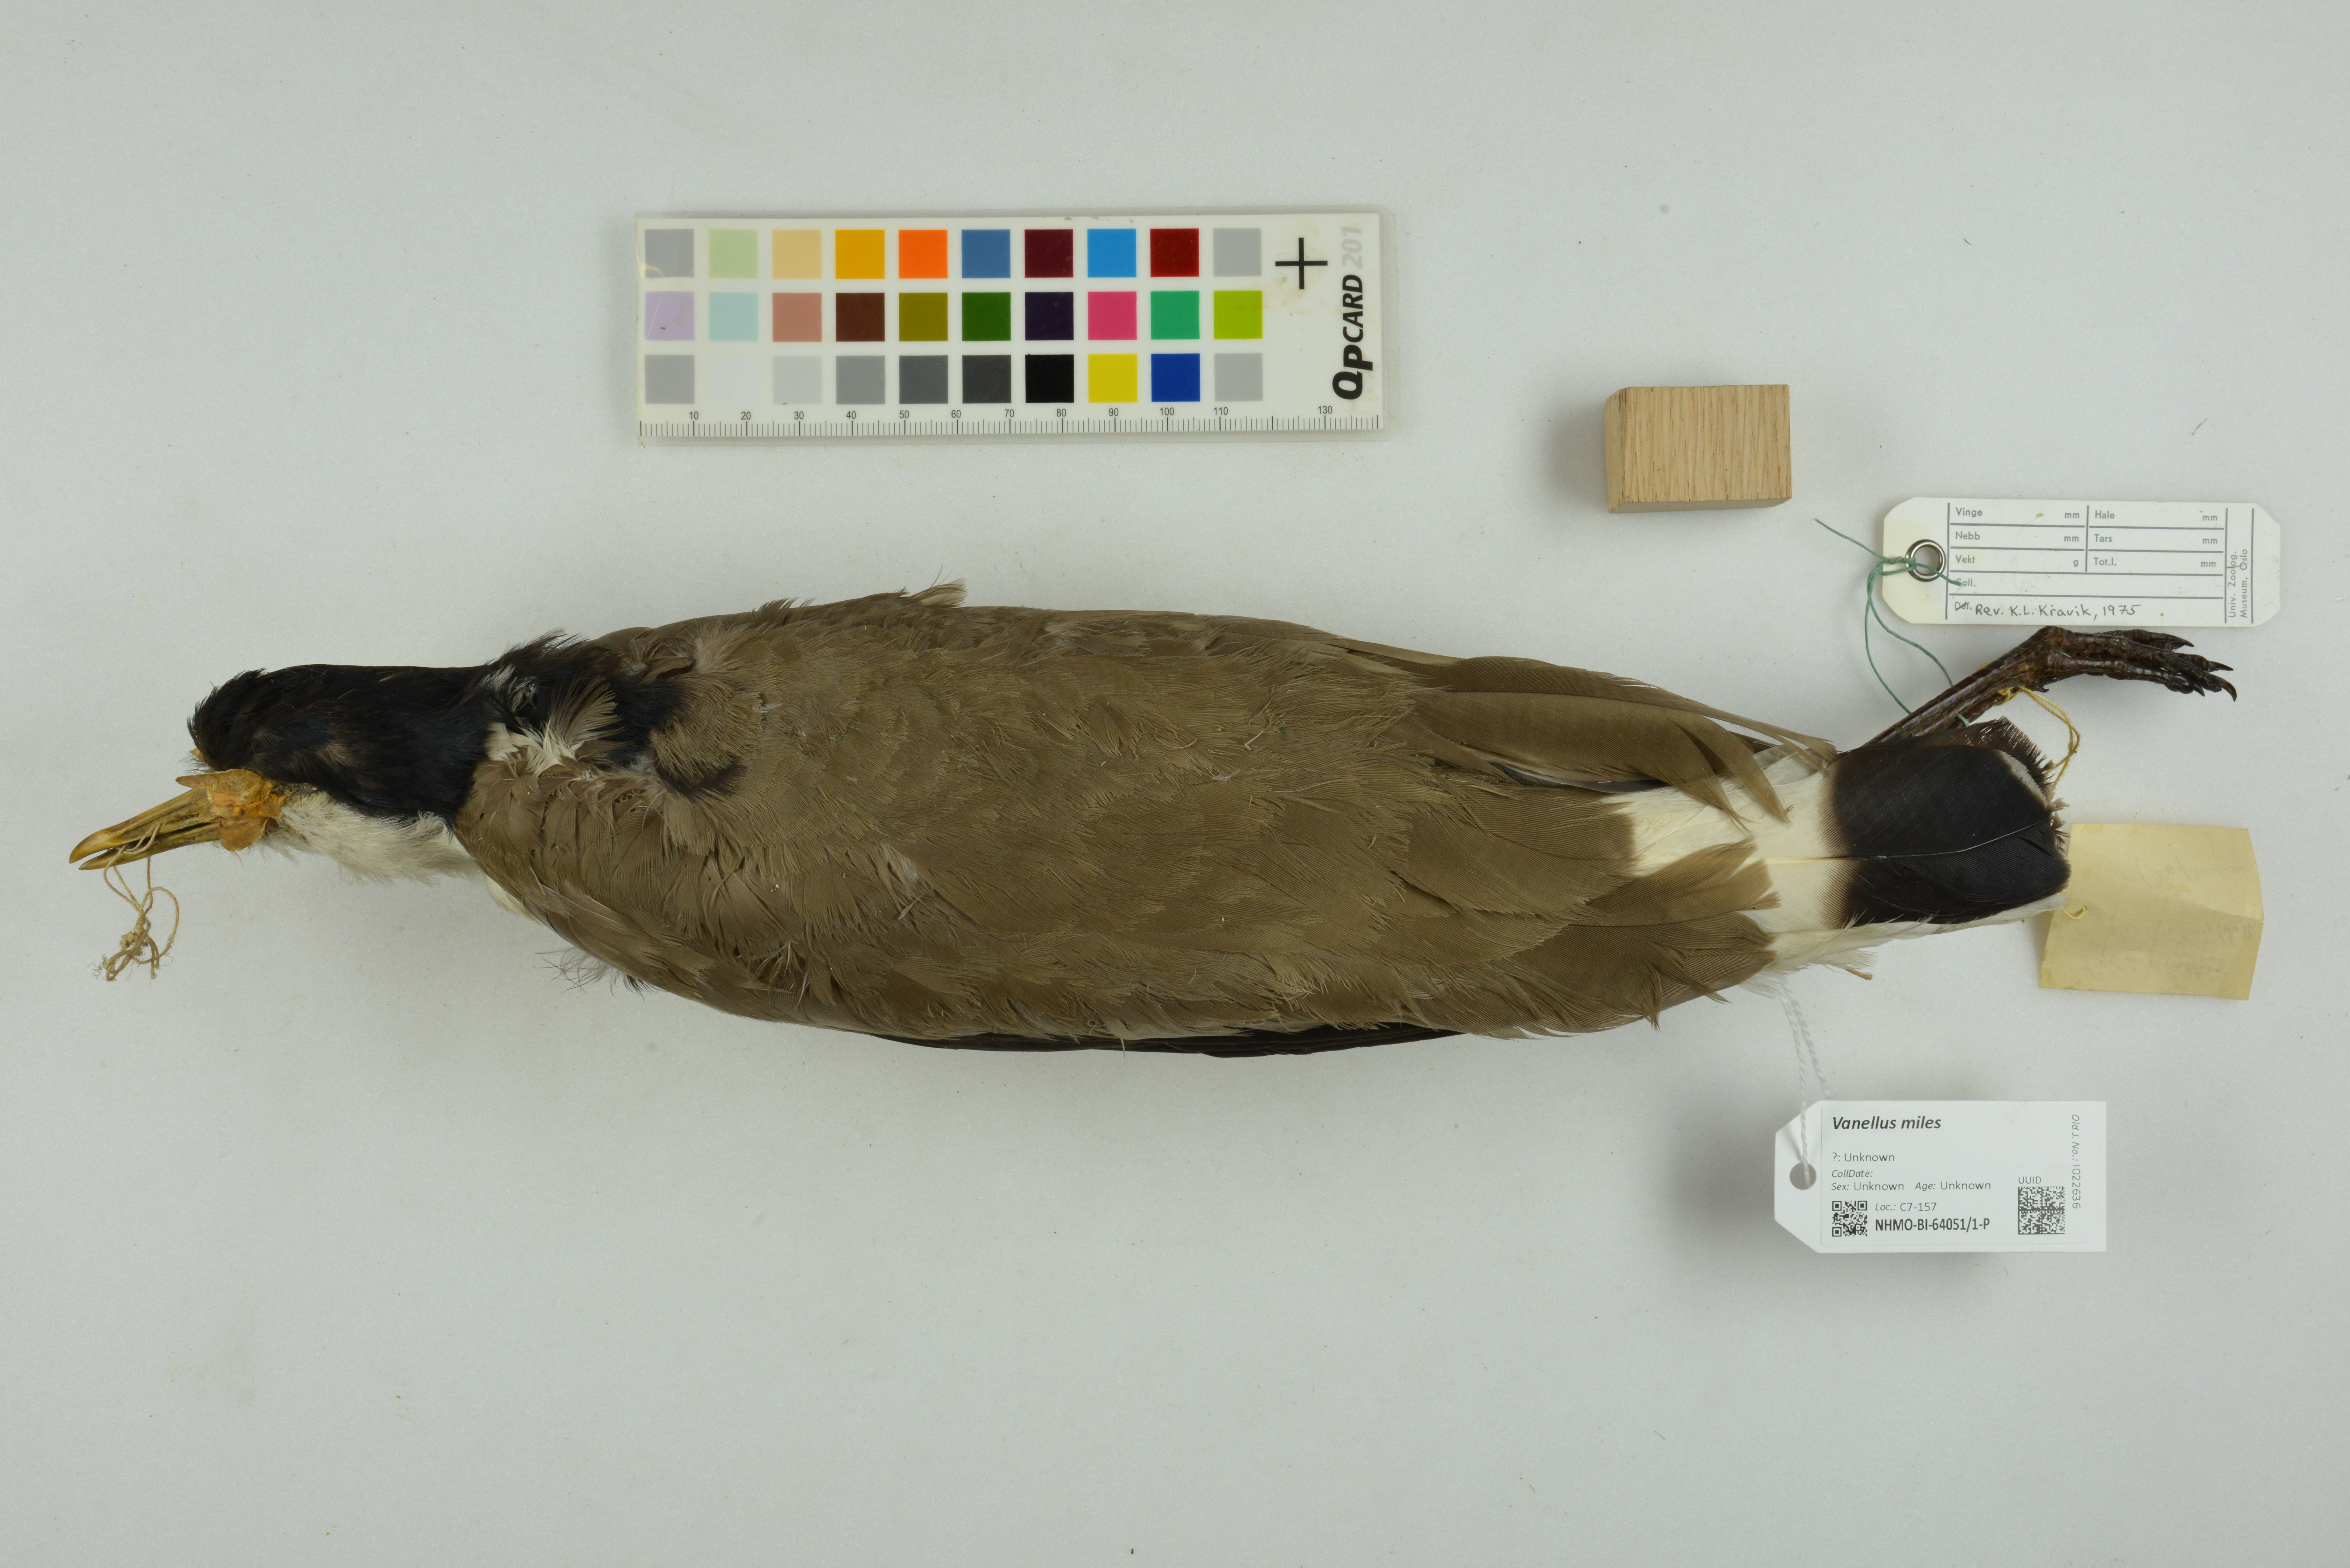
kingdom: Animalia
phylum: Chordata
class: Aves
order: Charadriiformes
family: Charadriidae
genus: Vanellus
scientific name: Vanellus miles
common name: Masked lapwing
